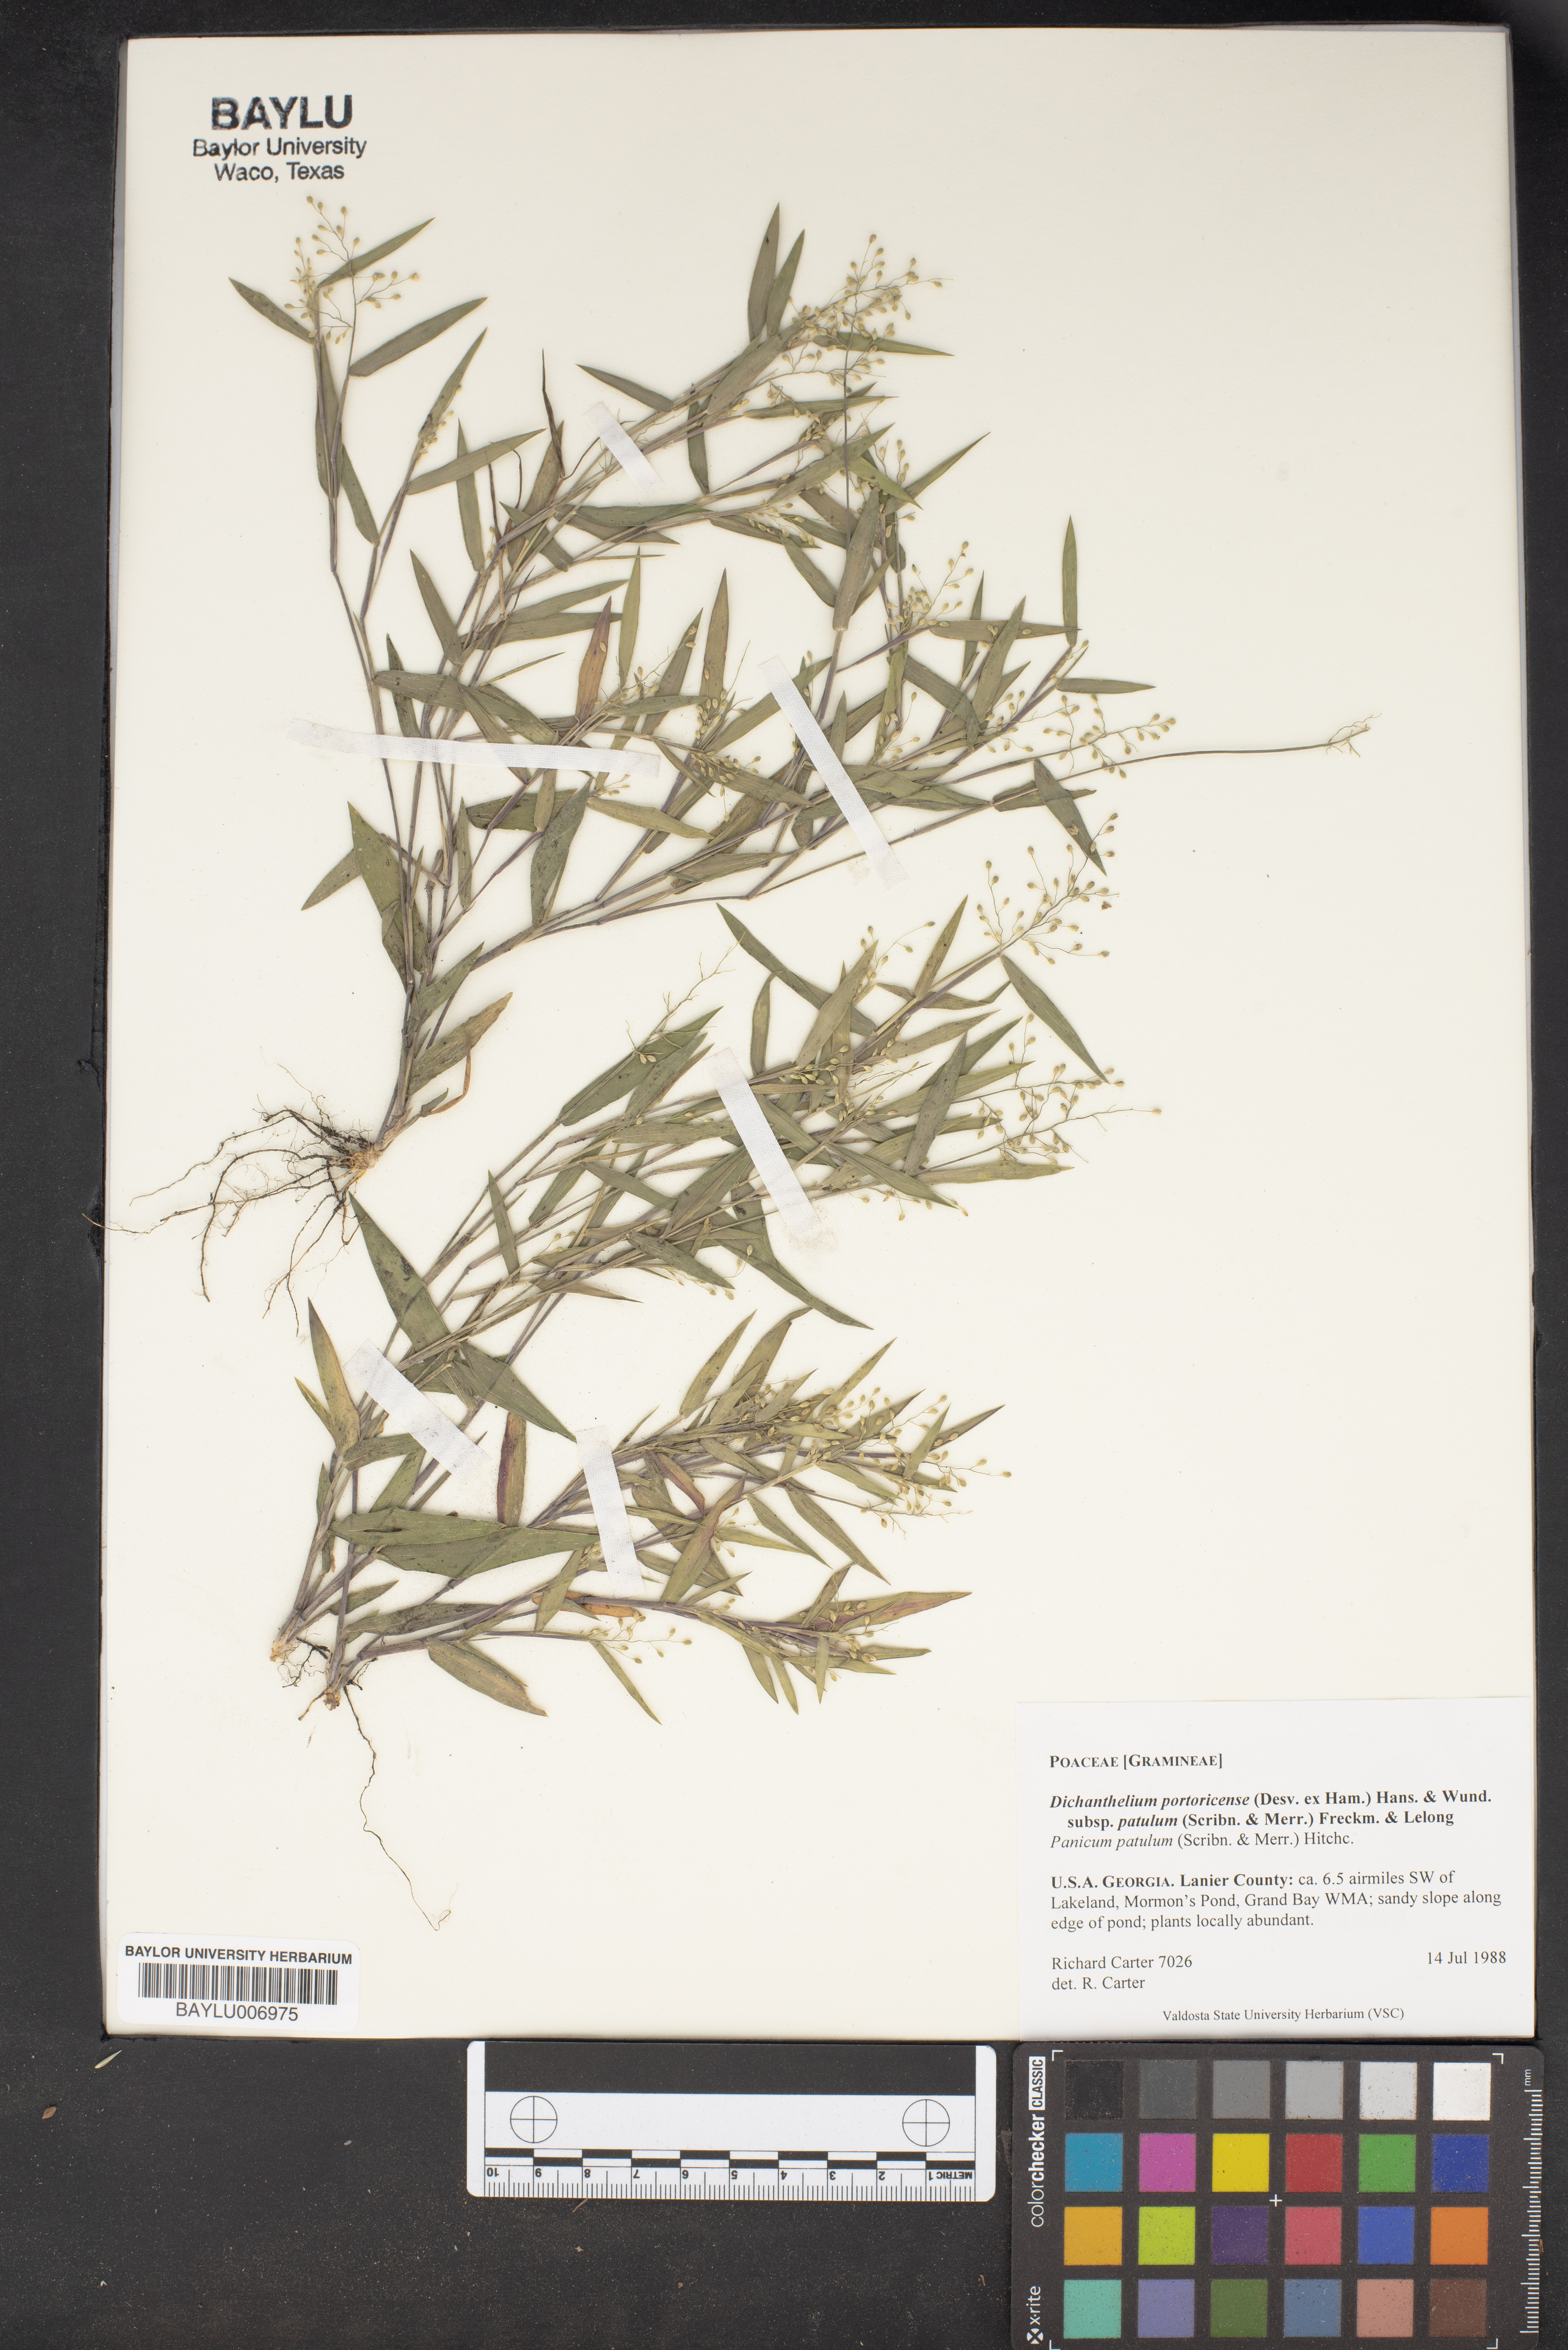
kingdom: Plantae
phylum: Tracheophyta
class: Liliopsida
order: Poales
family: Poaceae
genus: Dichanthelium
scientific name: Dichanthelium portoricense
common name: American panicgrass
